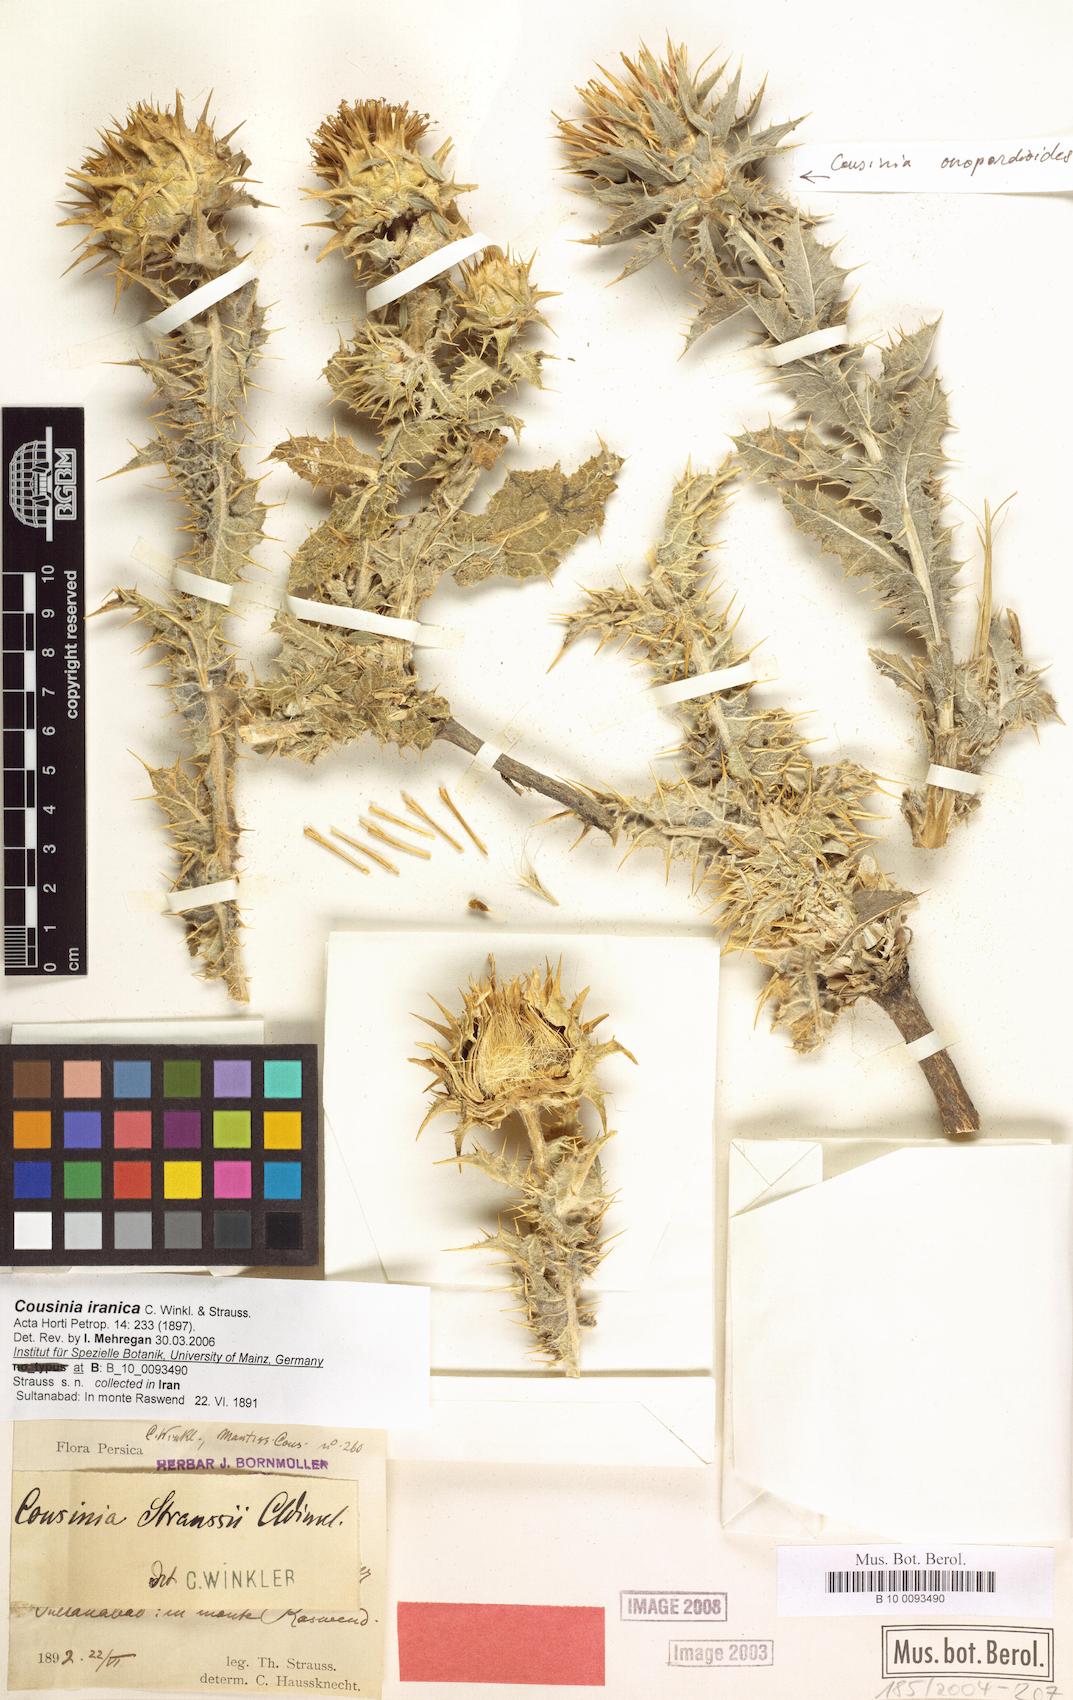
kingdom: Plantae
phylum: Tracheophyta
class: Magnoliopsida
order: Asterales
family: Asteraceae
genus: Cousinia
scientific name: Cousinia sagittata
